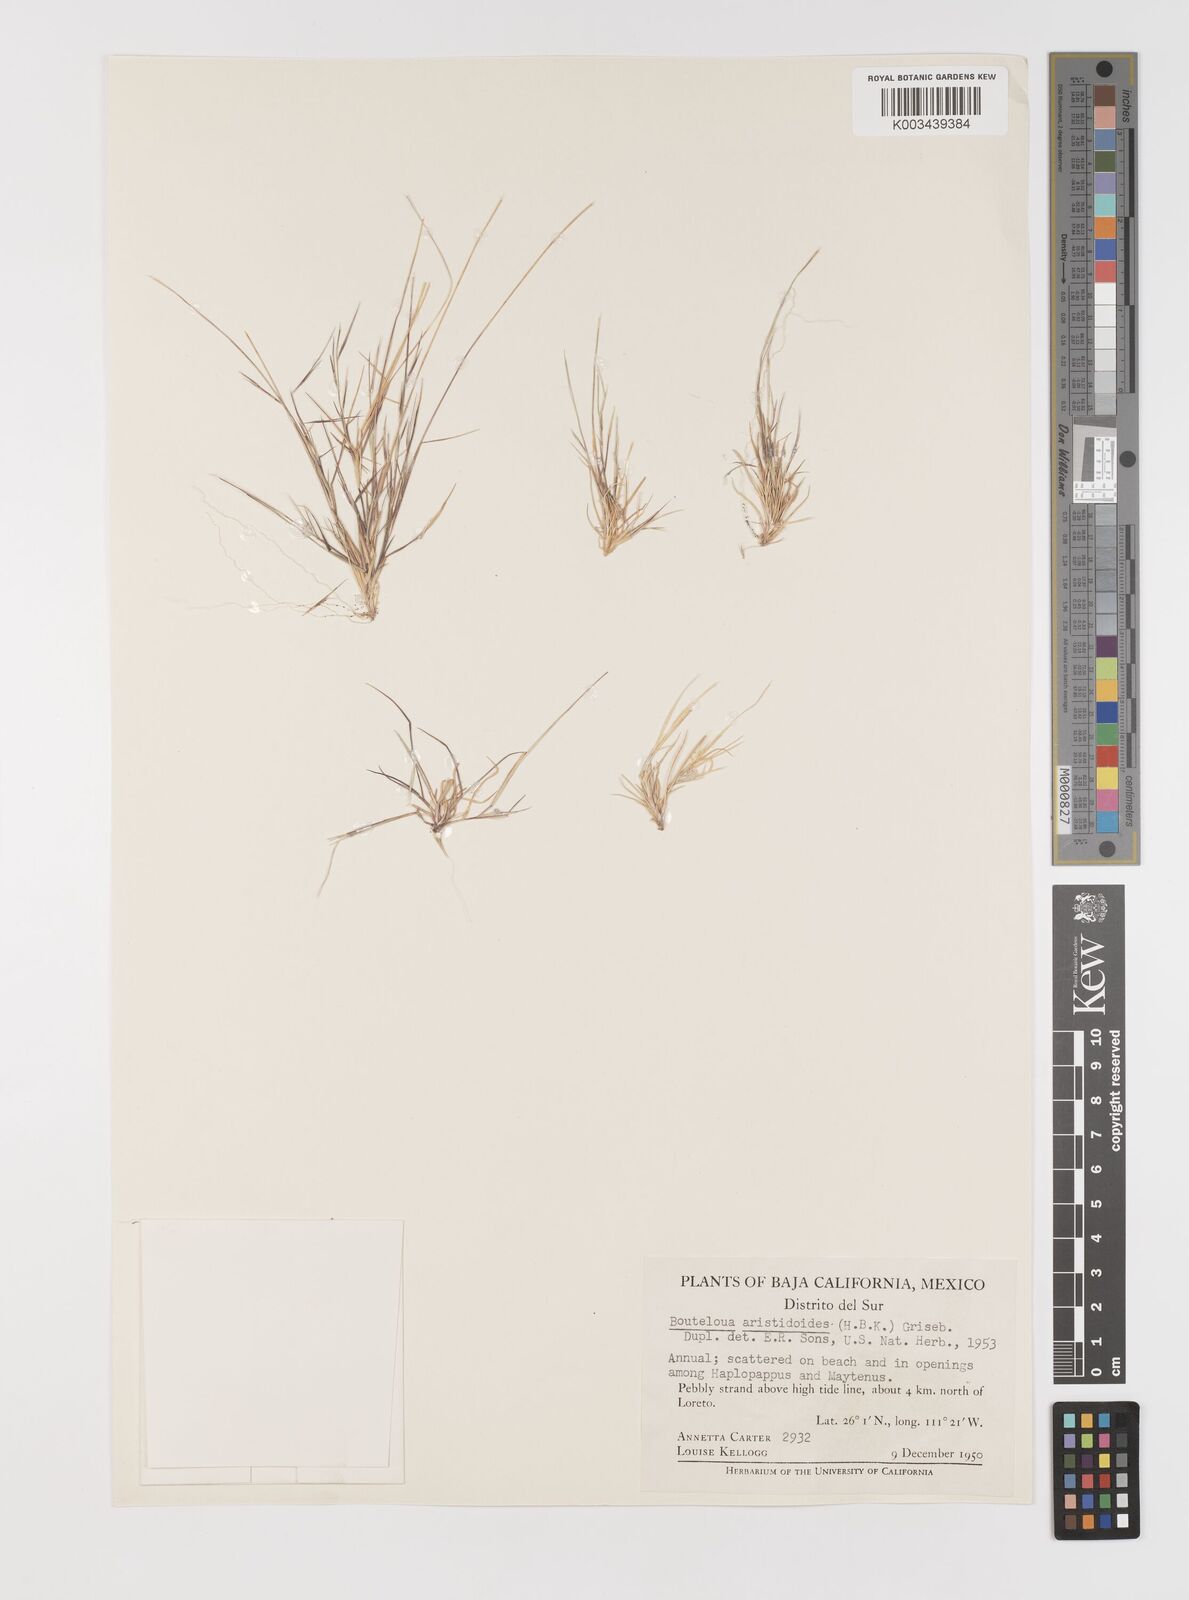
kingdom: Plantae
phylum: Tracheophyta
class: Liliopsida
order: Poales
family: Poaceae
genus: Bouteloua
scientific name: Bouteloua aristidoides
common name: Needle grama
